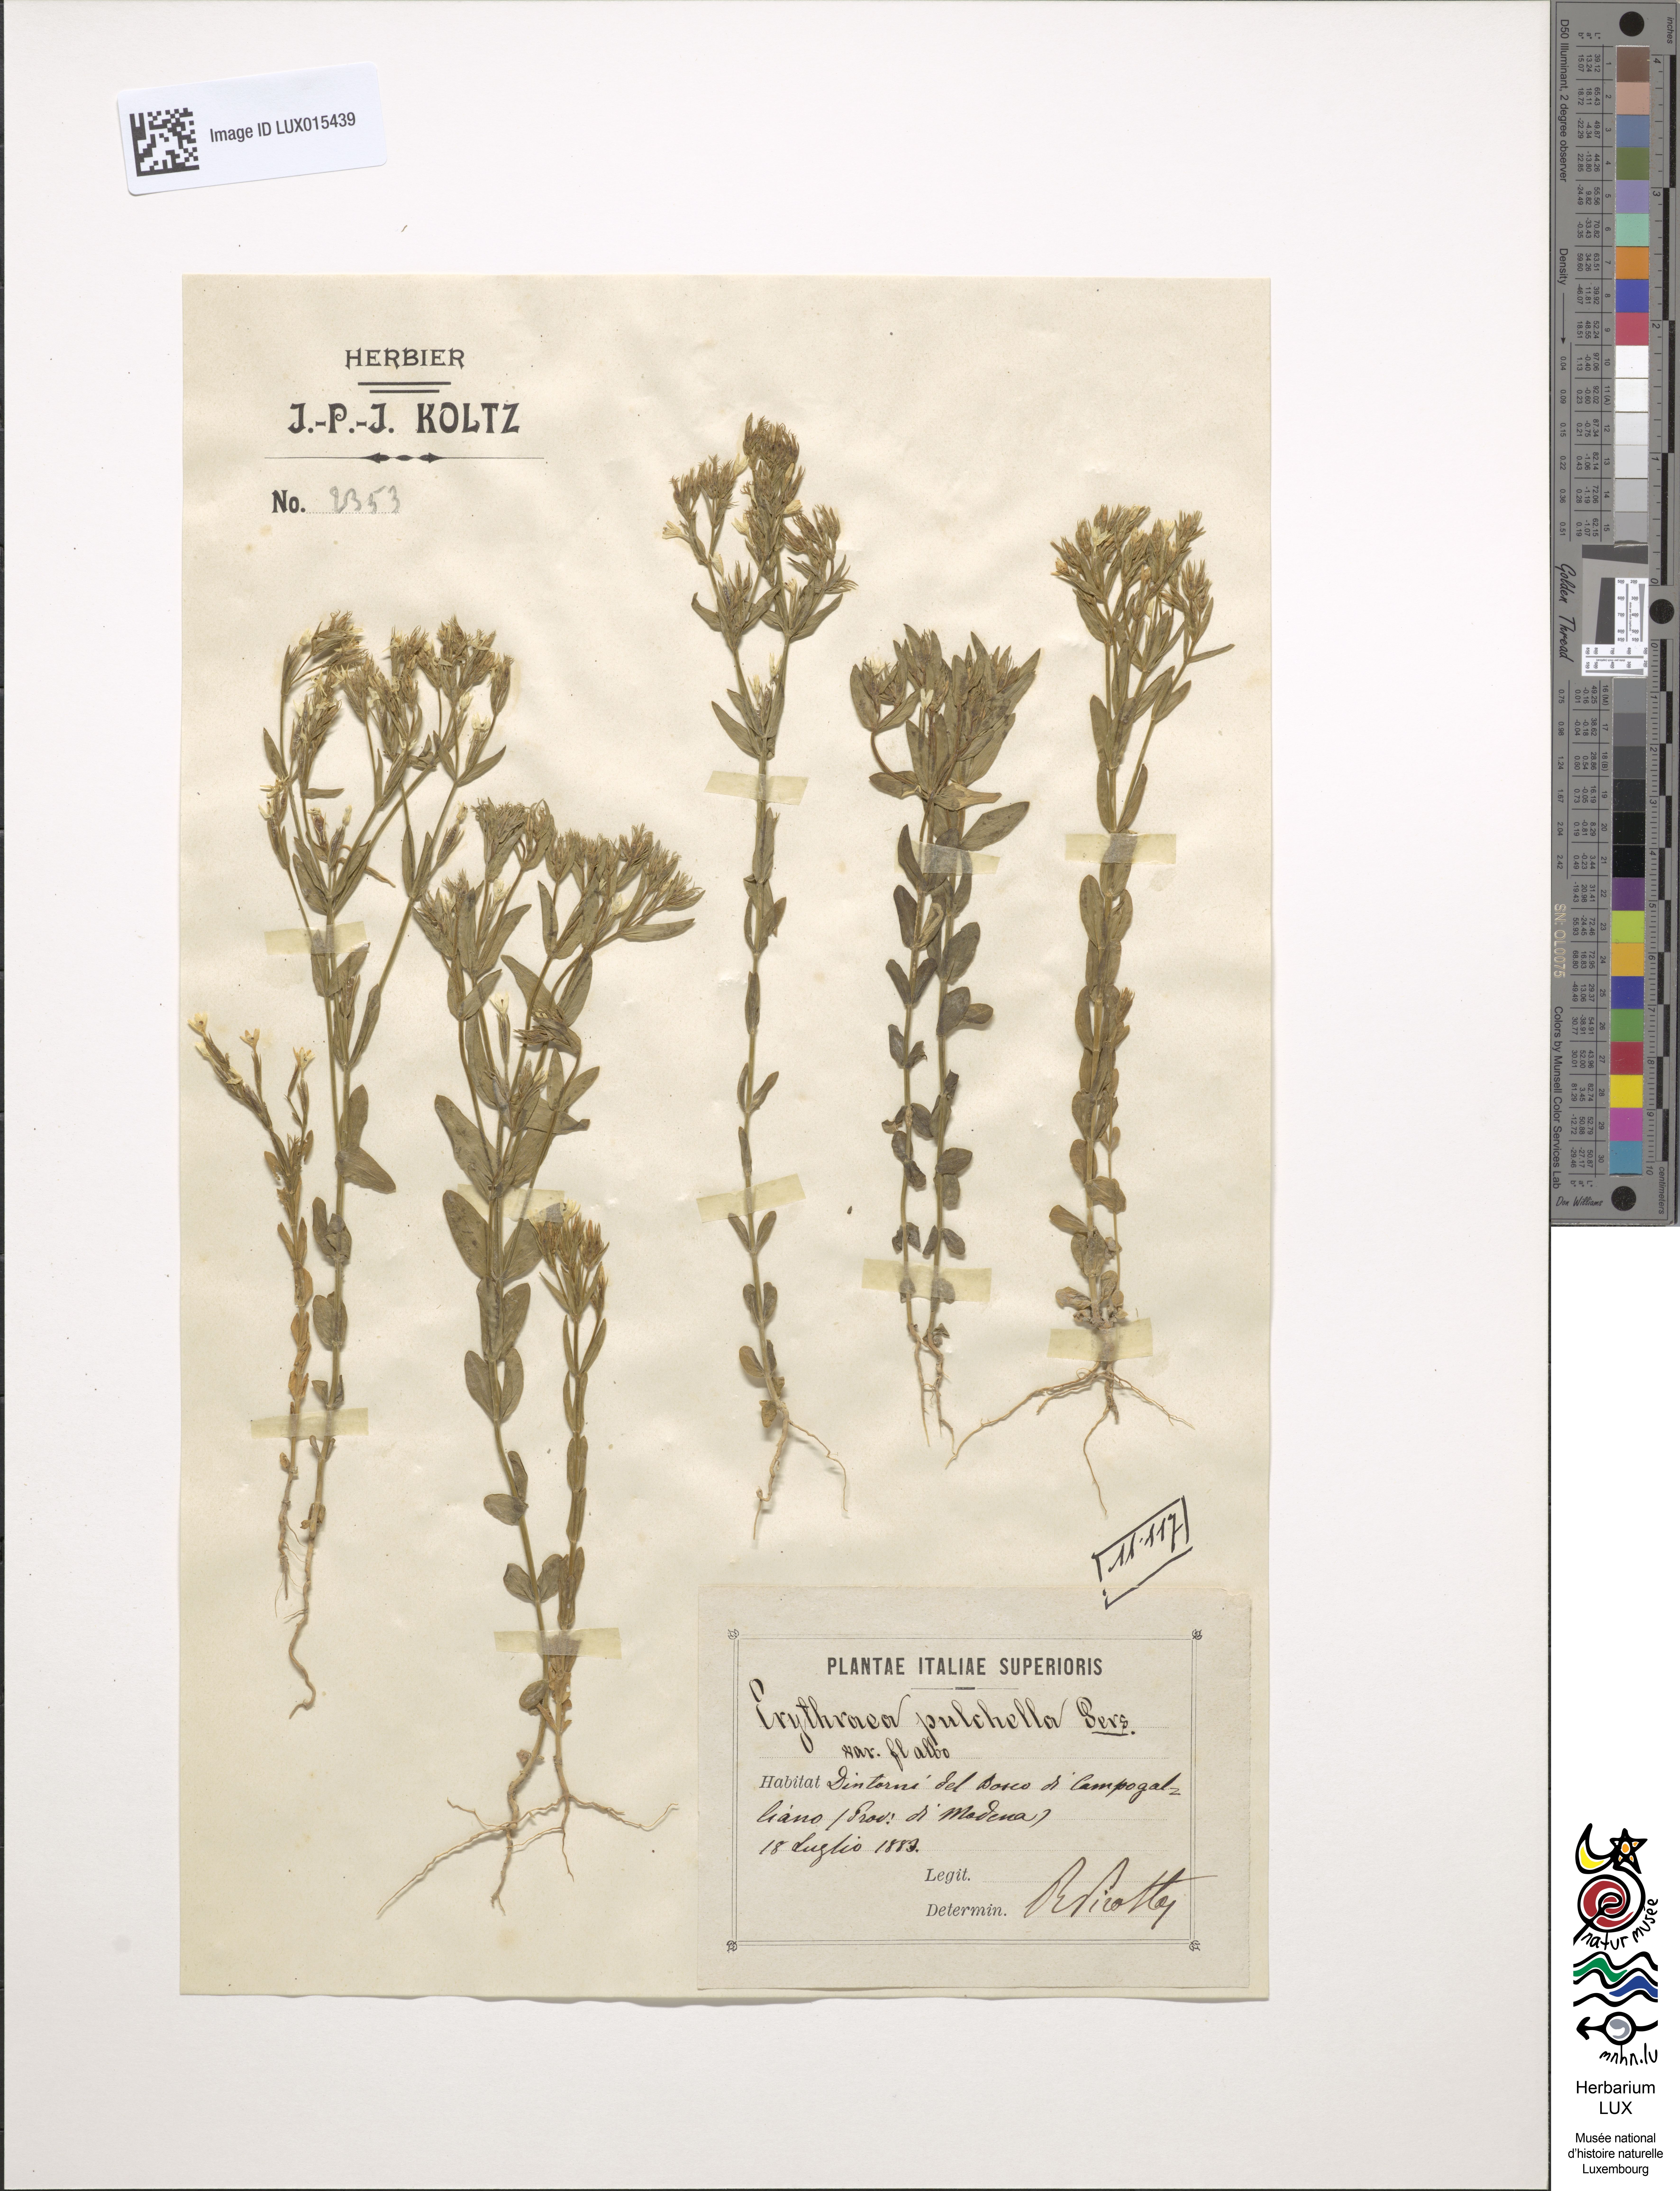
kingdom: Plantae
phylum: Tracheophyta
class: Magnoliopsida
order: Gentianales
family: Gentianaceae
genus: Centaurium
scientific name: Centaurium pulchellum
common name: Lesser centaury
